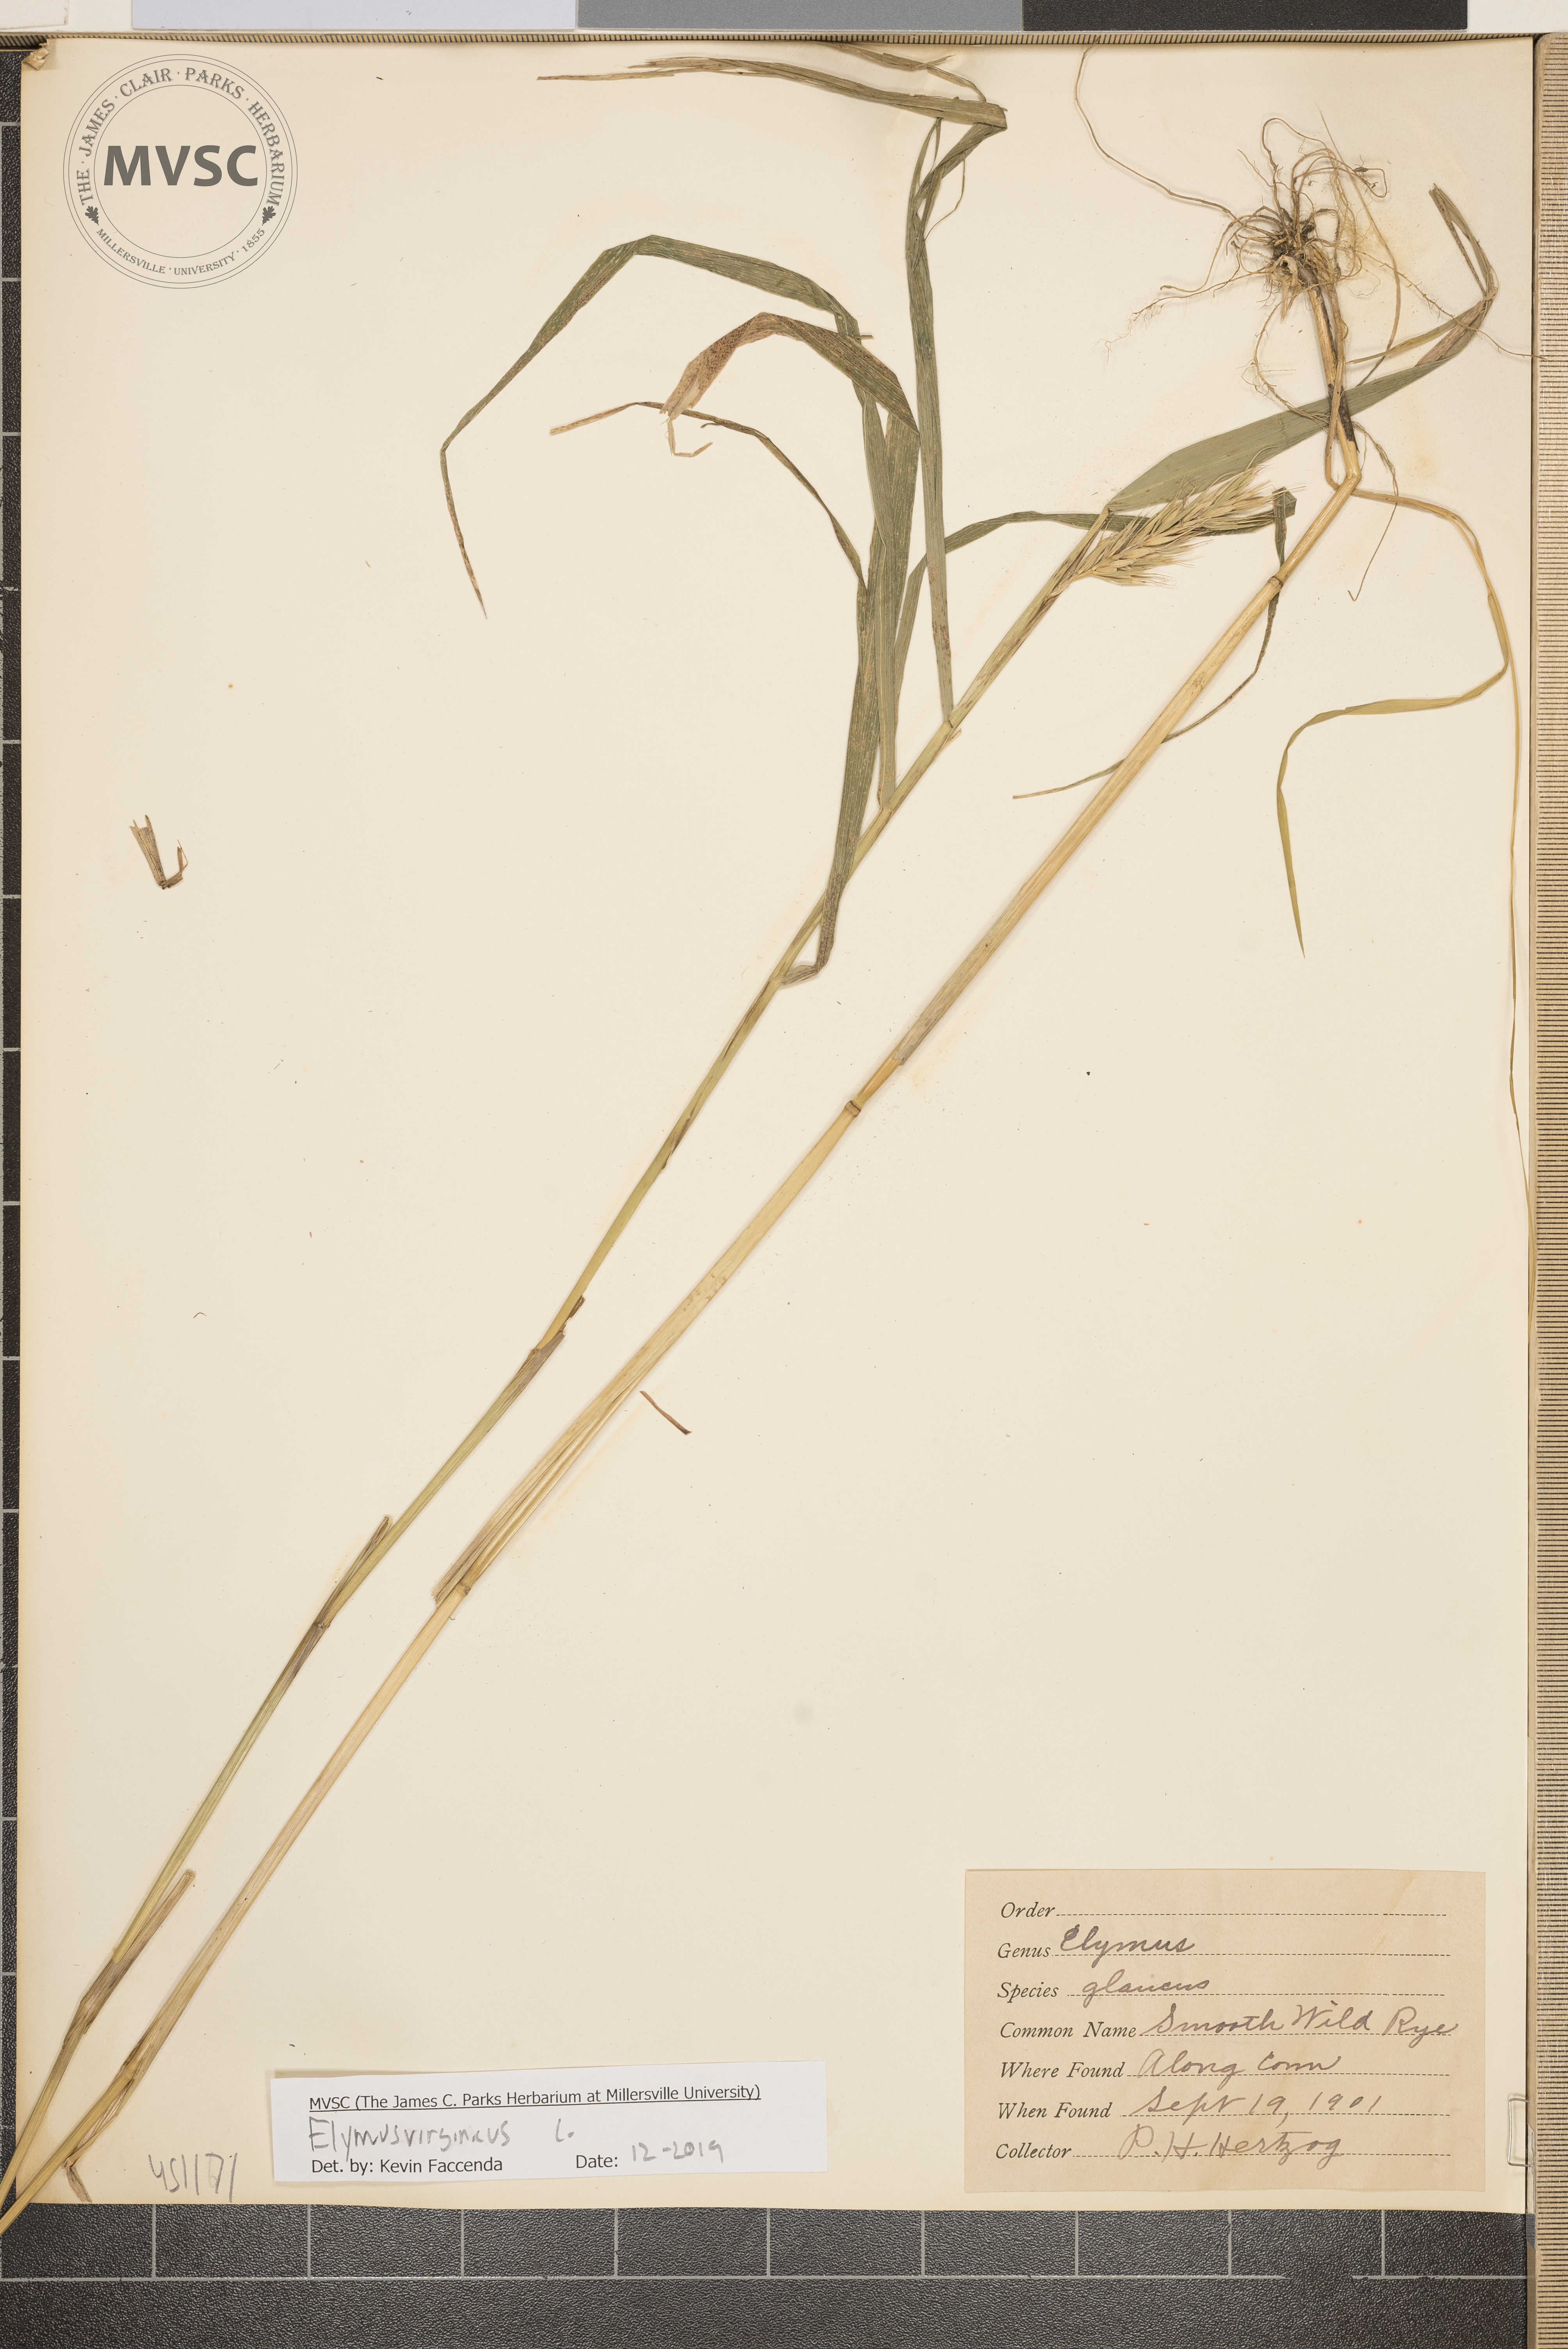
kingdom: Plantae
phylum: Tracheophyta
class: Liliopsida
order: Poales
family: Poaceae
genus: Elymus
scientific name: Elymus virginicus
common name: Common eastern wildrye
